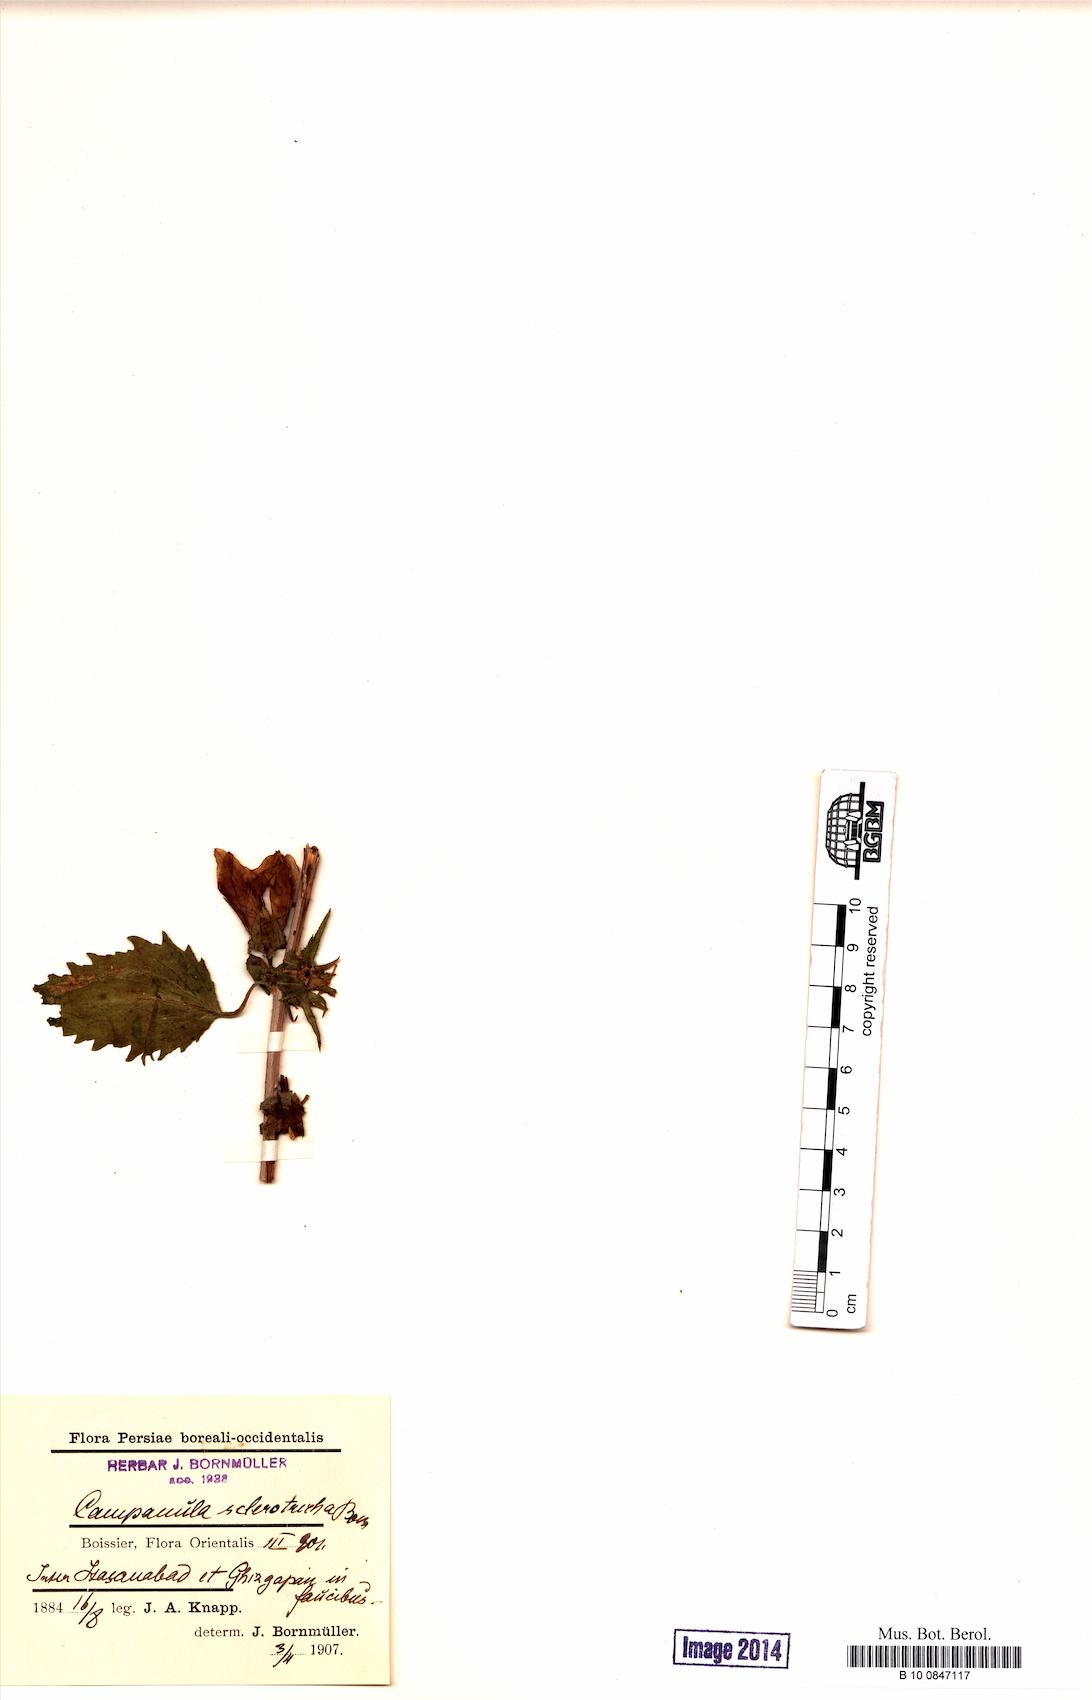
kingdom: Plantae
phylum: Tracheophyta
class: Magnoliopsida
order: Asterales
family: Campanulaceae
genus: Campanula
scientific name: Campanula sclerotricha
